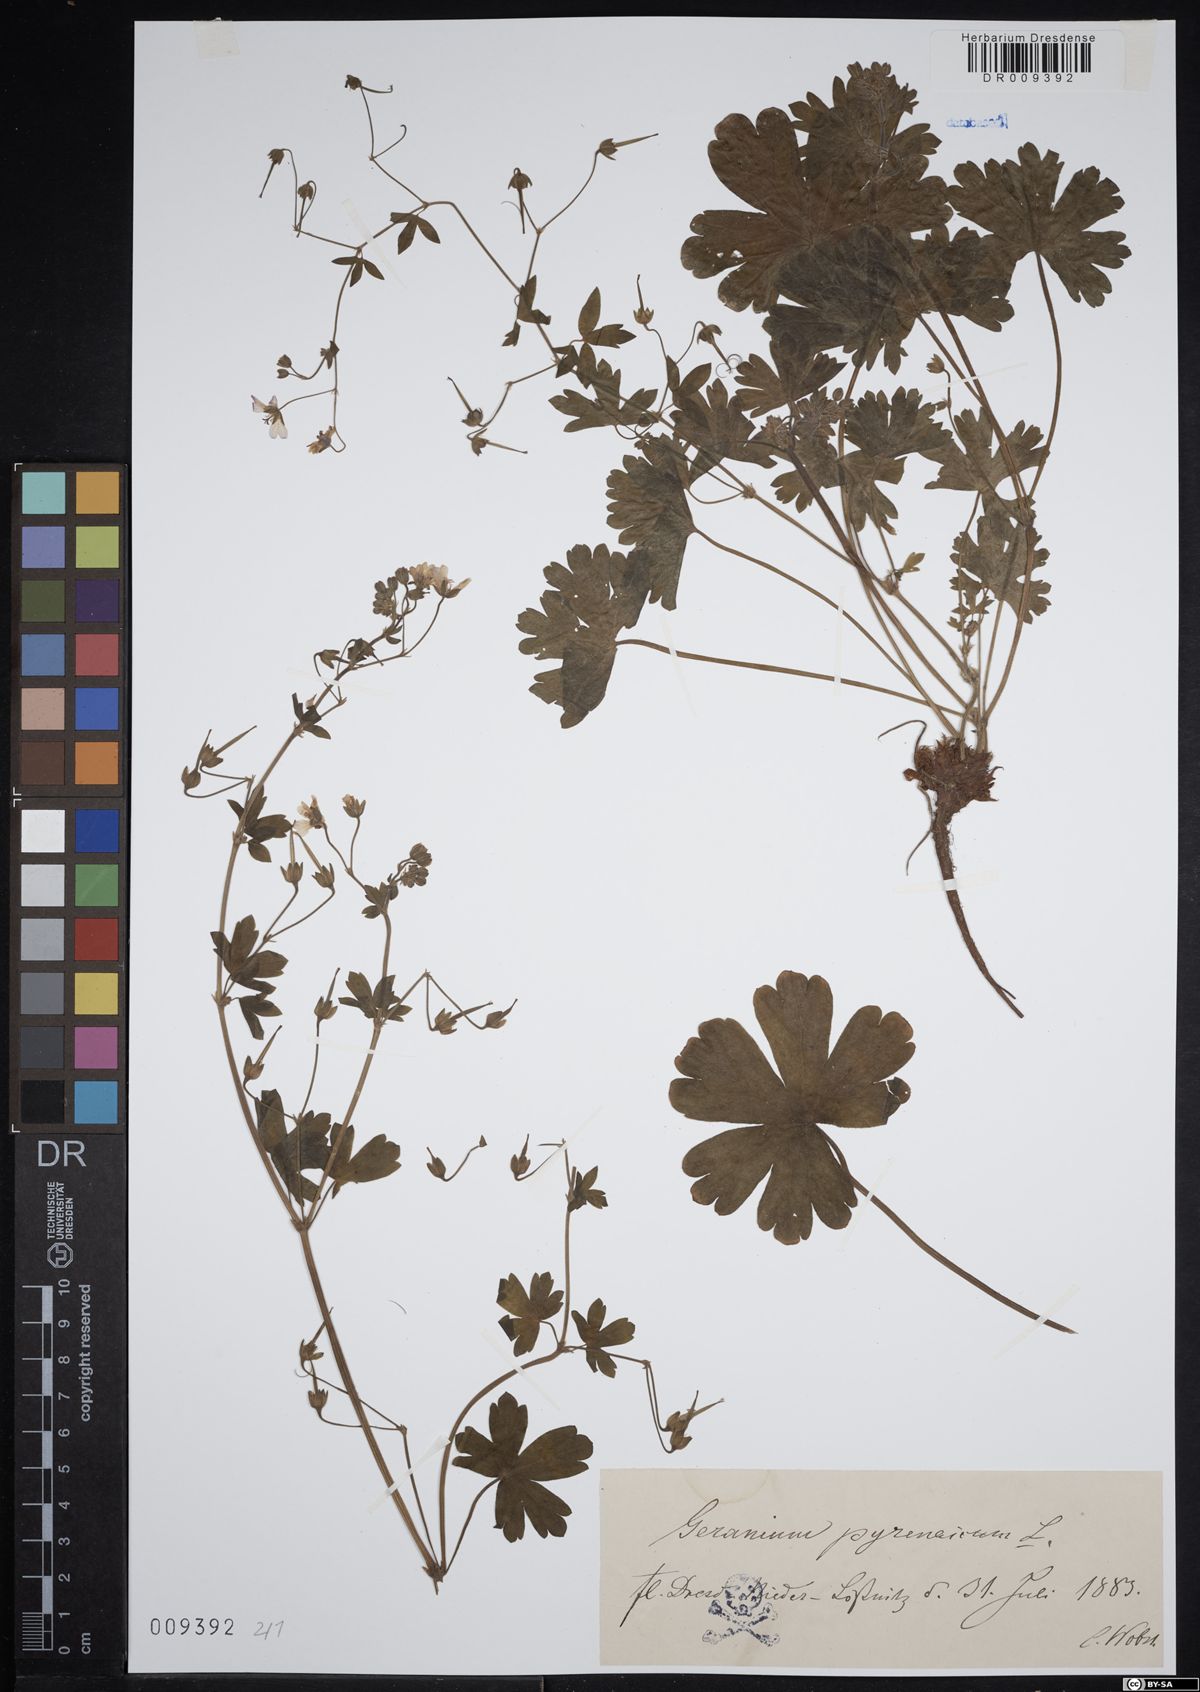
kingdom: Plantae
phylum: Tracheophyta
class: Magnoliopsida
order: Geraniales
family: Geraniaceae
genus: Geranium
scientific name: Geranium pyrenaicum
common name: Hedgerow crane's-bill
